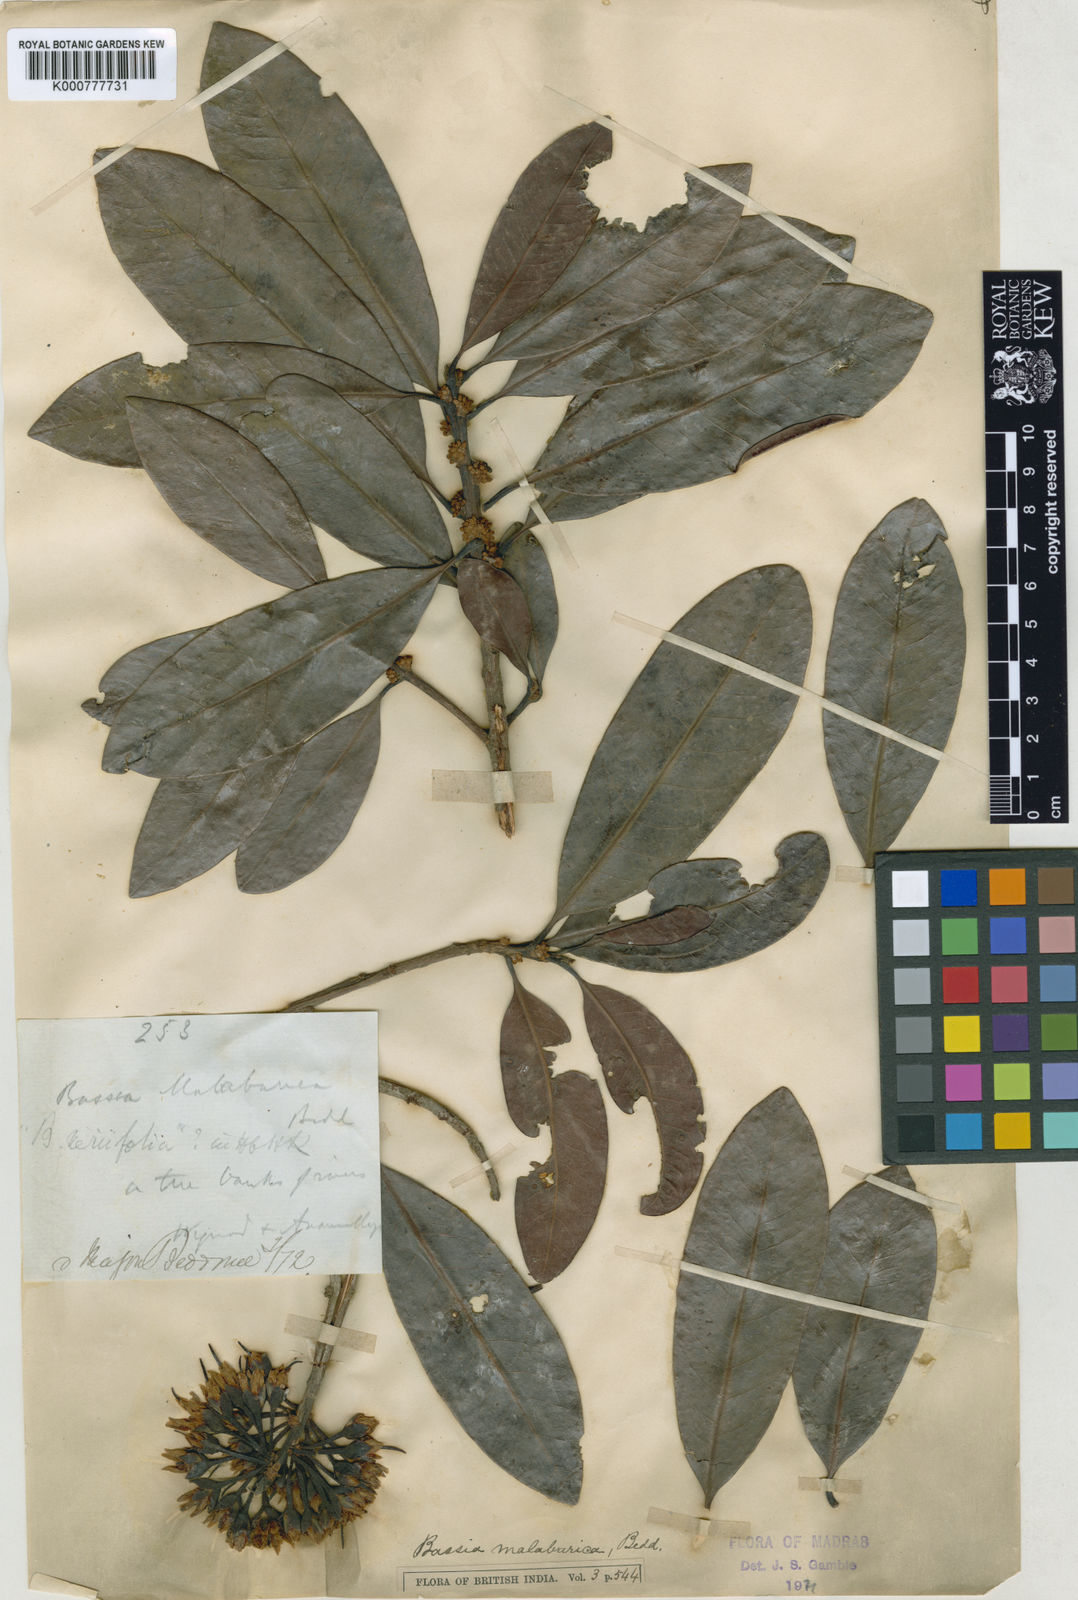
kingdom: Plantae
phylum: Tracheophyta
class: Magnoliopsida
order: Ericales
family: Sapotaceae
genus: Madhuca
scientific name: Madhuca neriifolia
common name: Illipe butter tree
